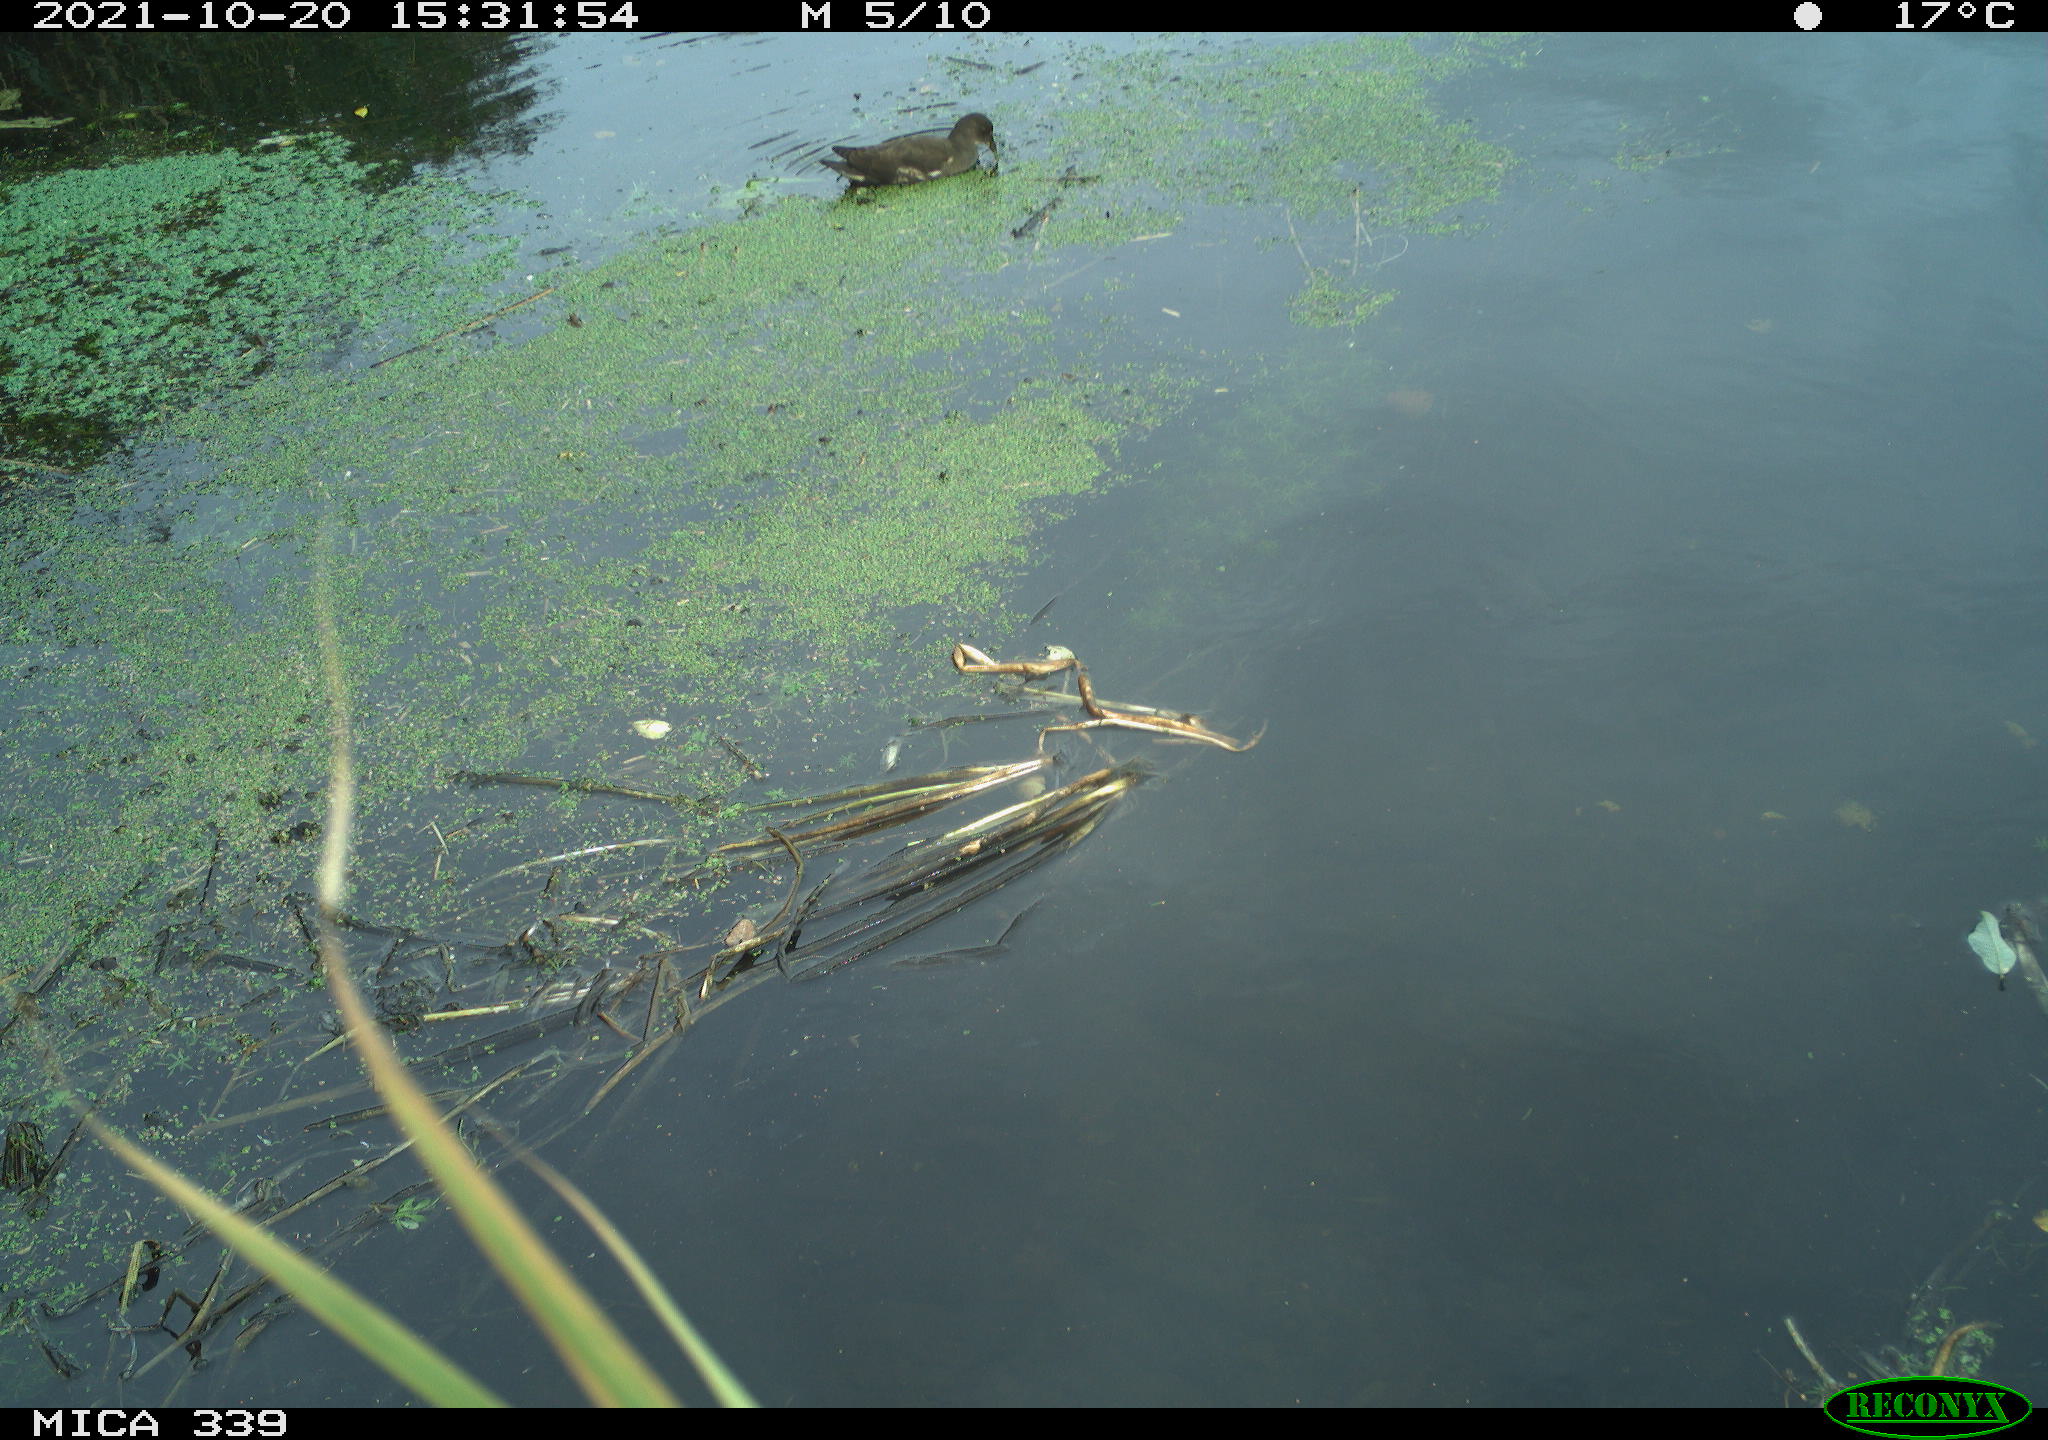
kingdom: Animalia
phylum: Chordata
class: Aves
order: Gruiformes
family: Rallidae
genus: Gallinula
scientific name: Gallinula chloropus
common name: Common moorhen
